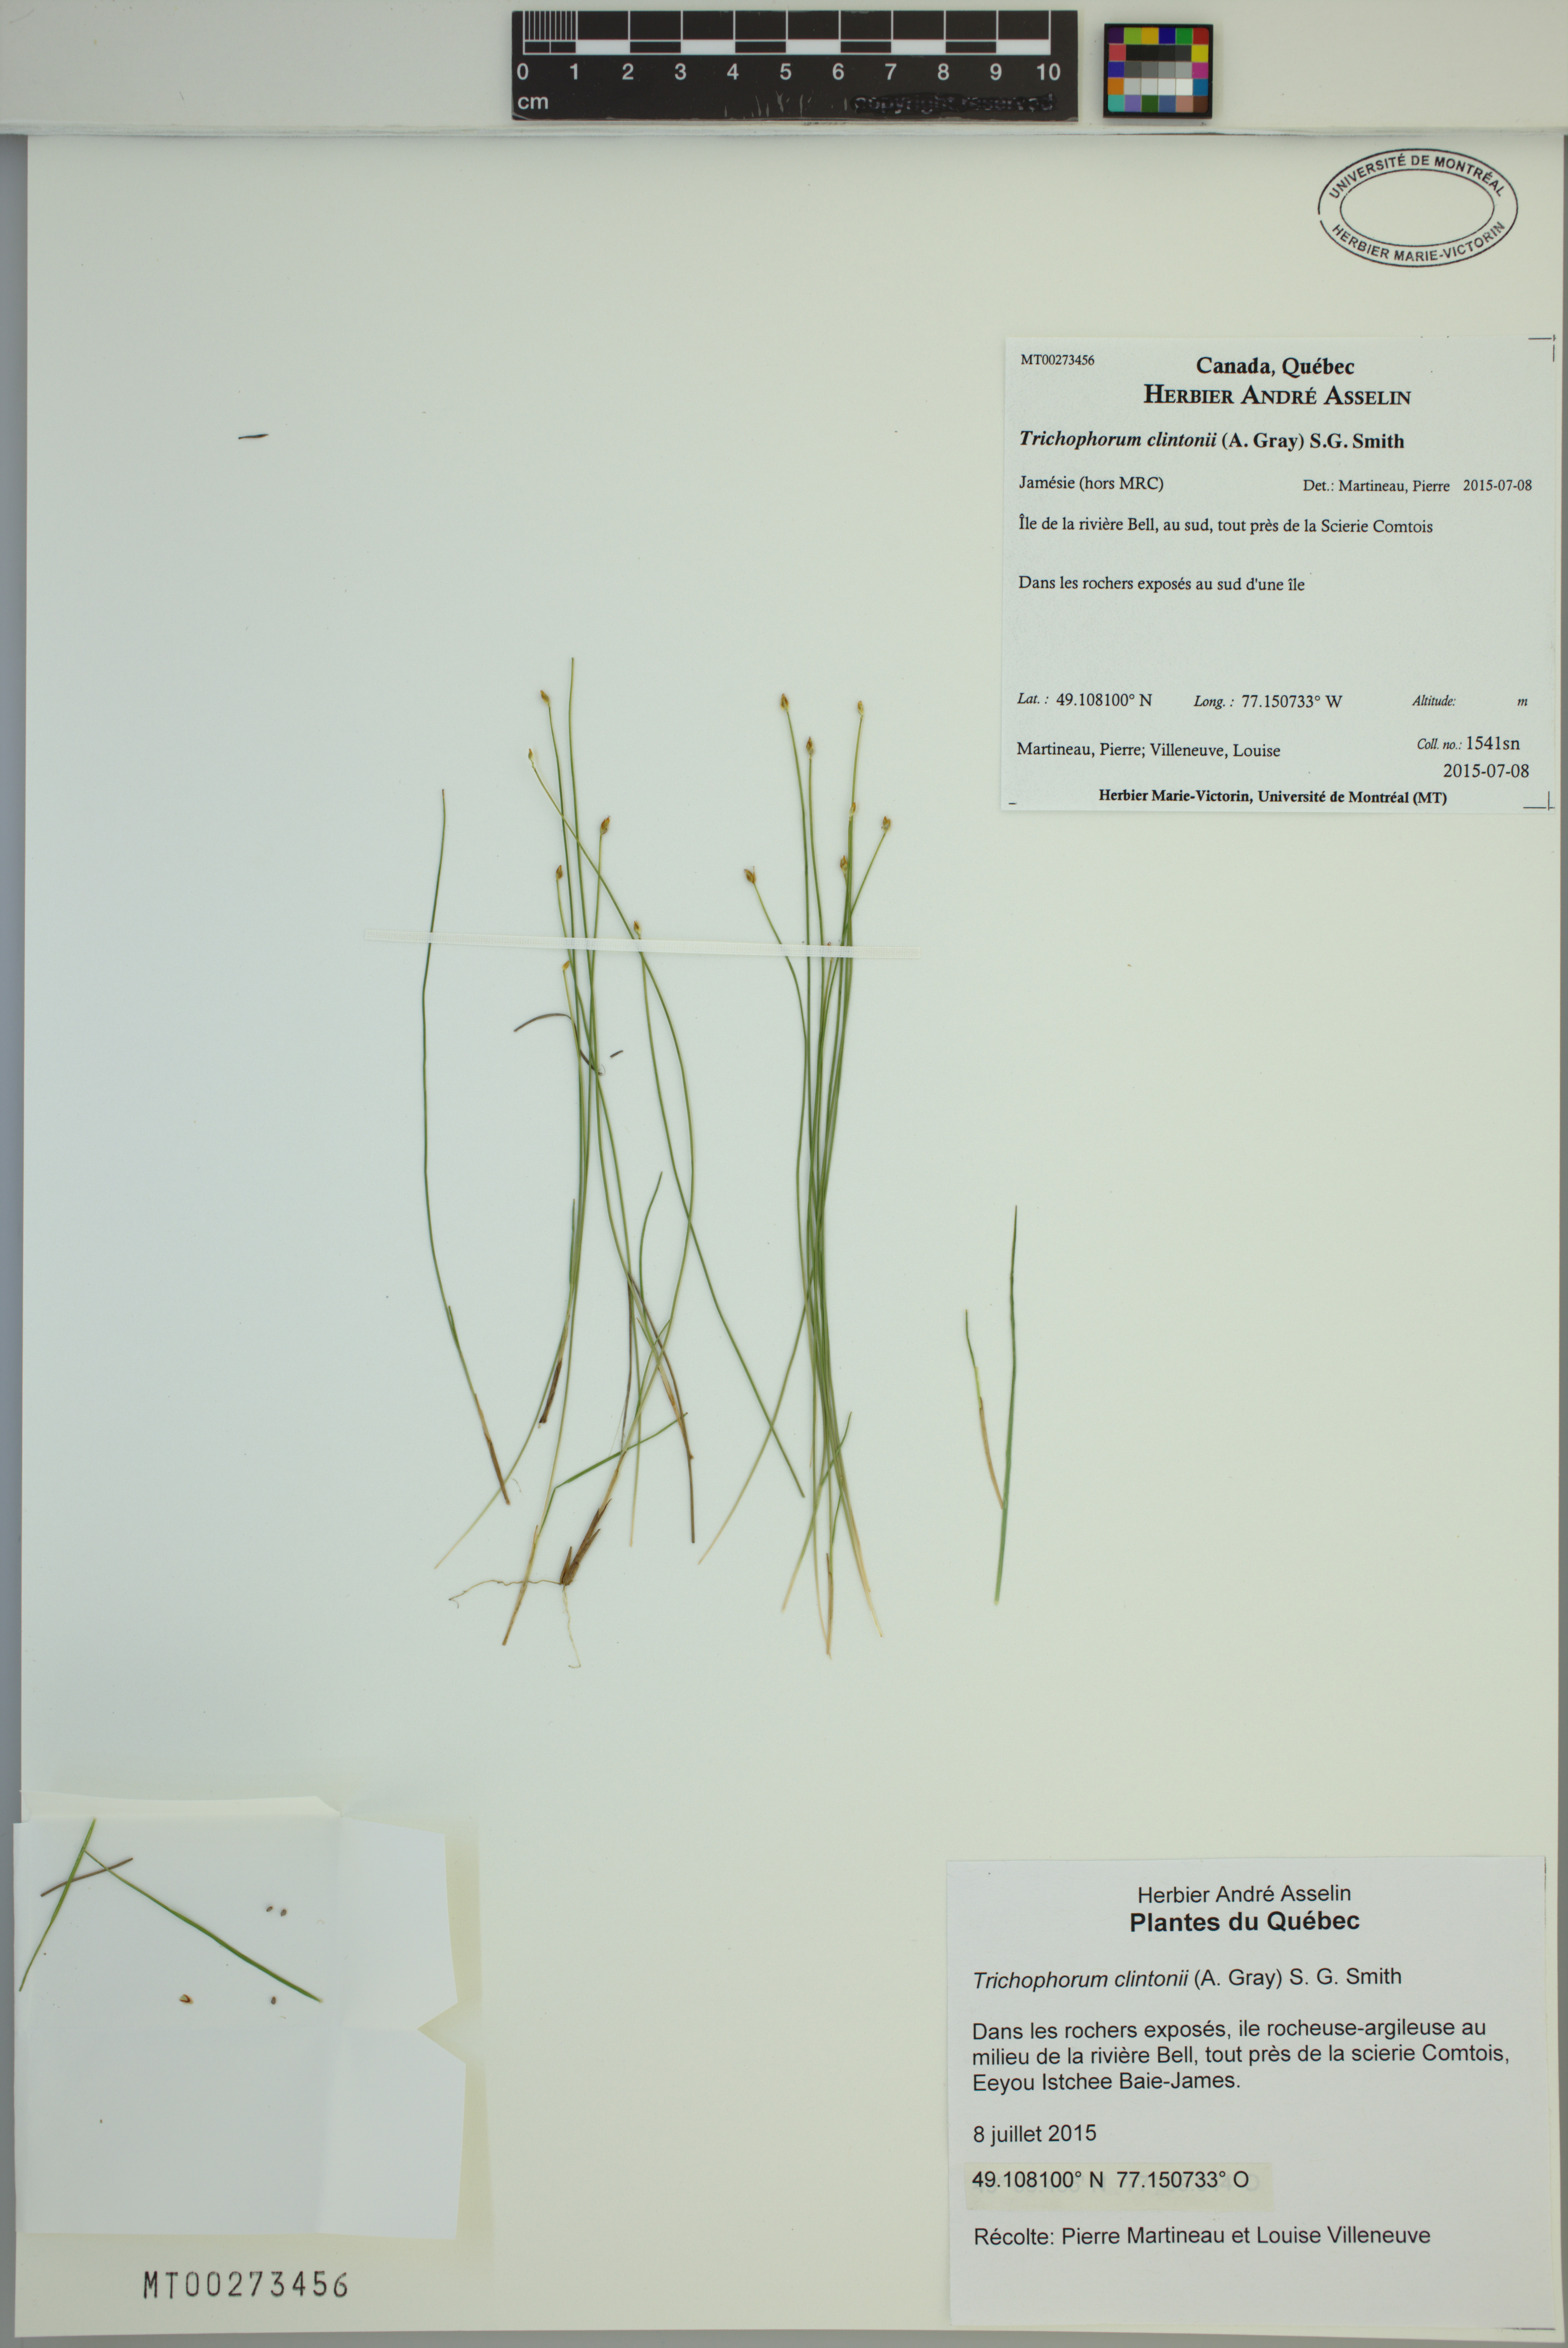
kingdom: Plantae
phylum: Tracheophyta
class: Liliopsida
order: Poales
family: Cyperaceae
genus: Trichophorum
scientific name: Trichophorum clintonii
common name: Clinton's bulrush
